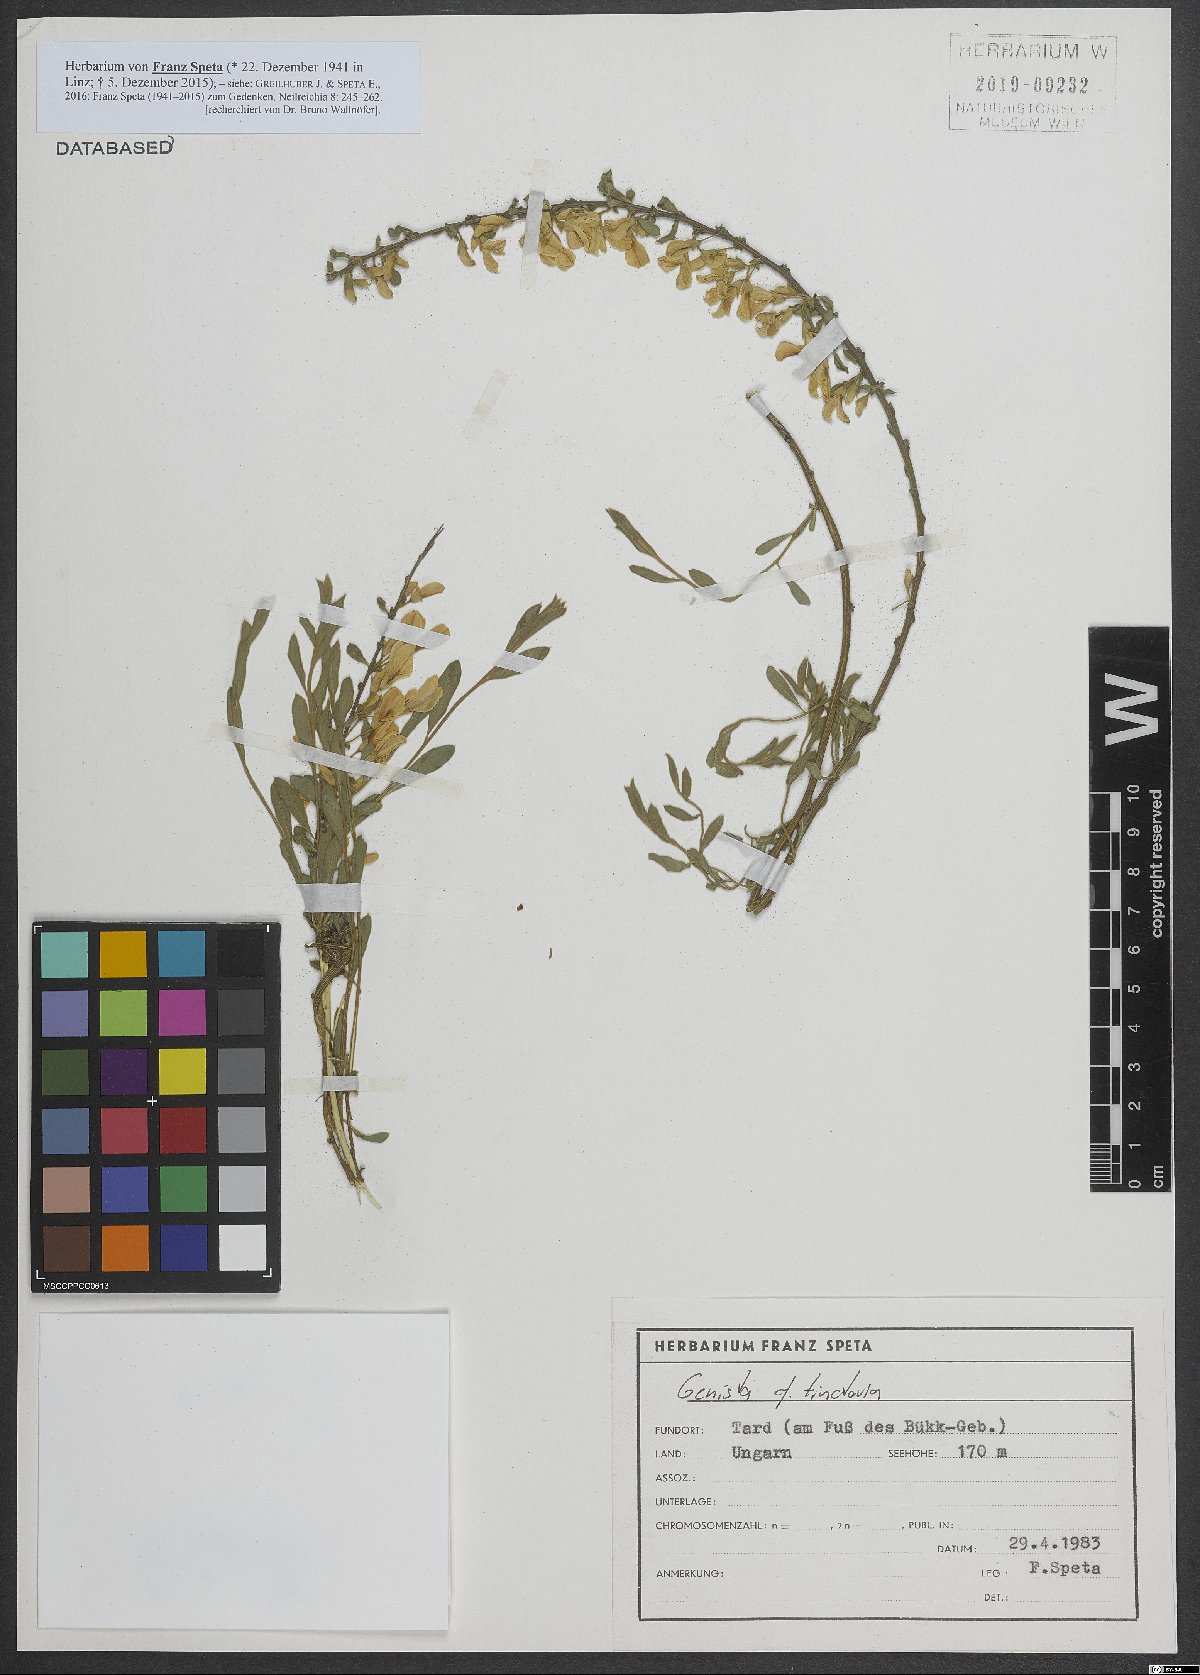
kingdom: Plantae
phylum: Tracheophyta
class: Magnoliopsida
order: Fabales
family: Fabaceae
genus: Genista
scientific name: Genista tinctoria
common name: Dyer's greenweed
